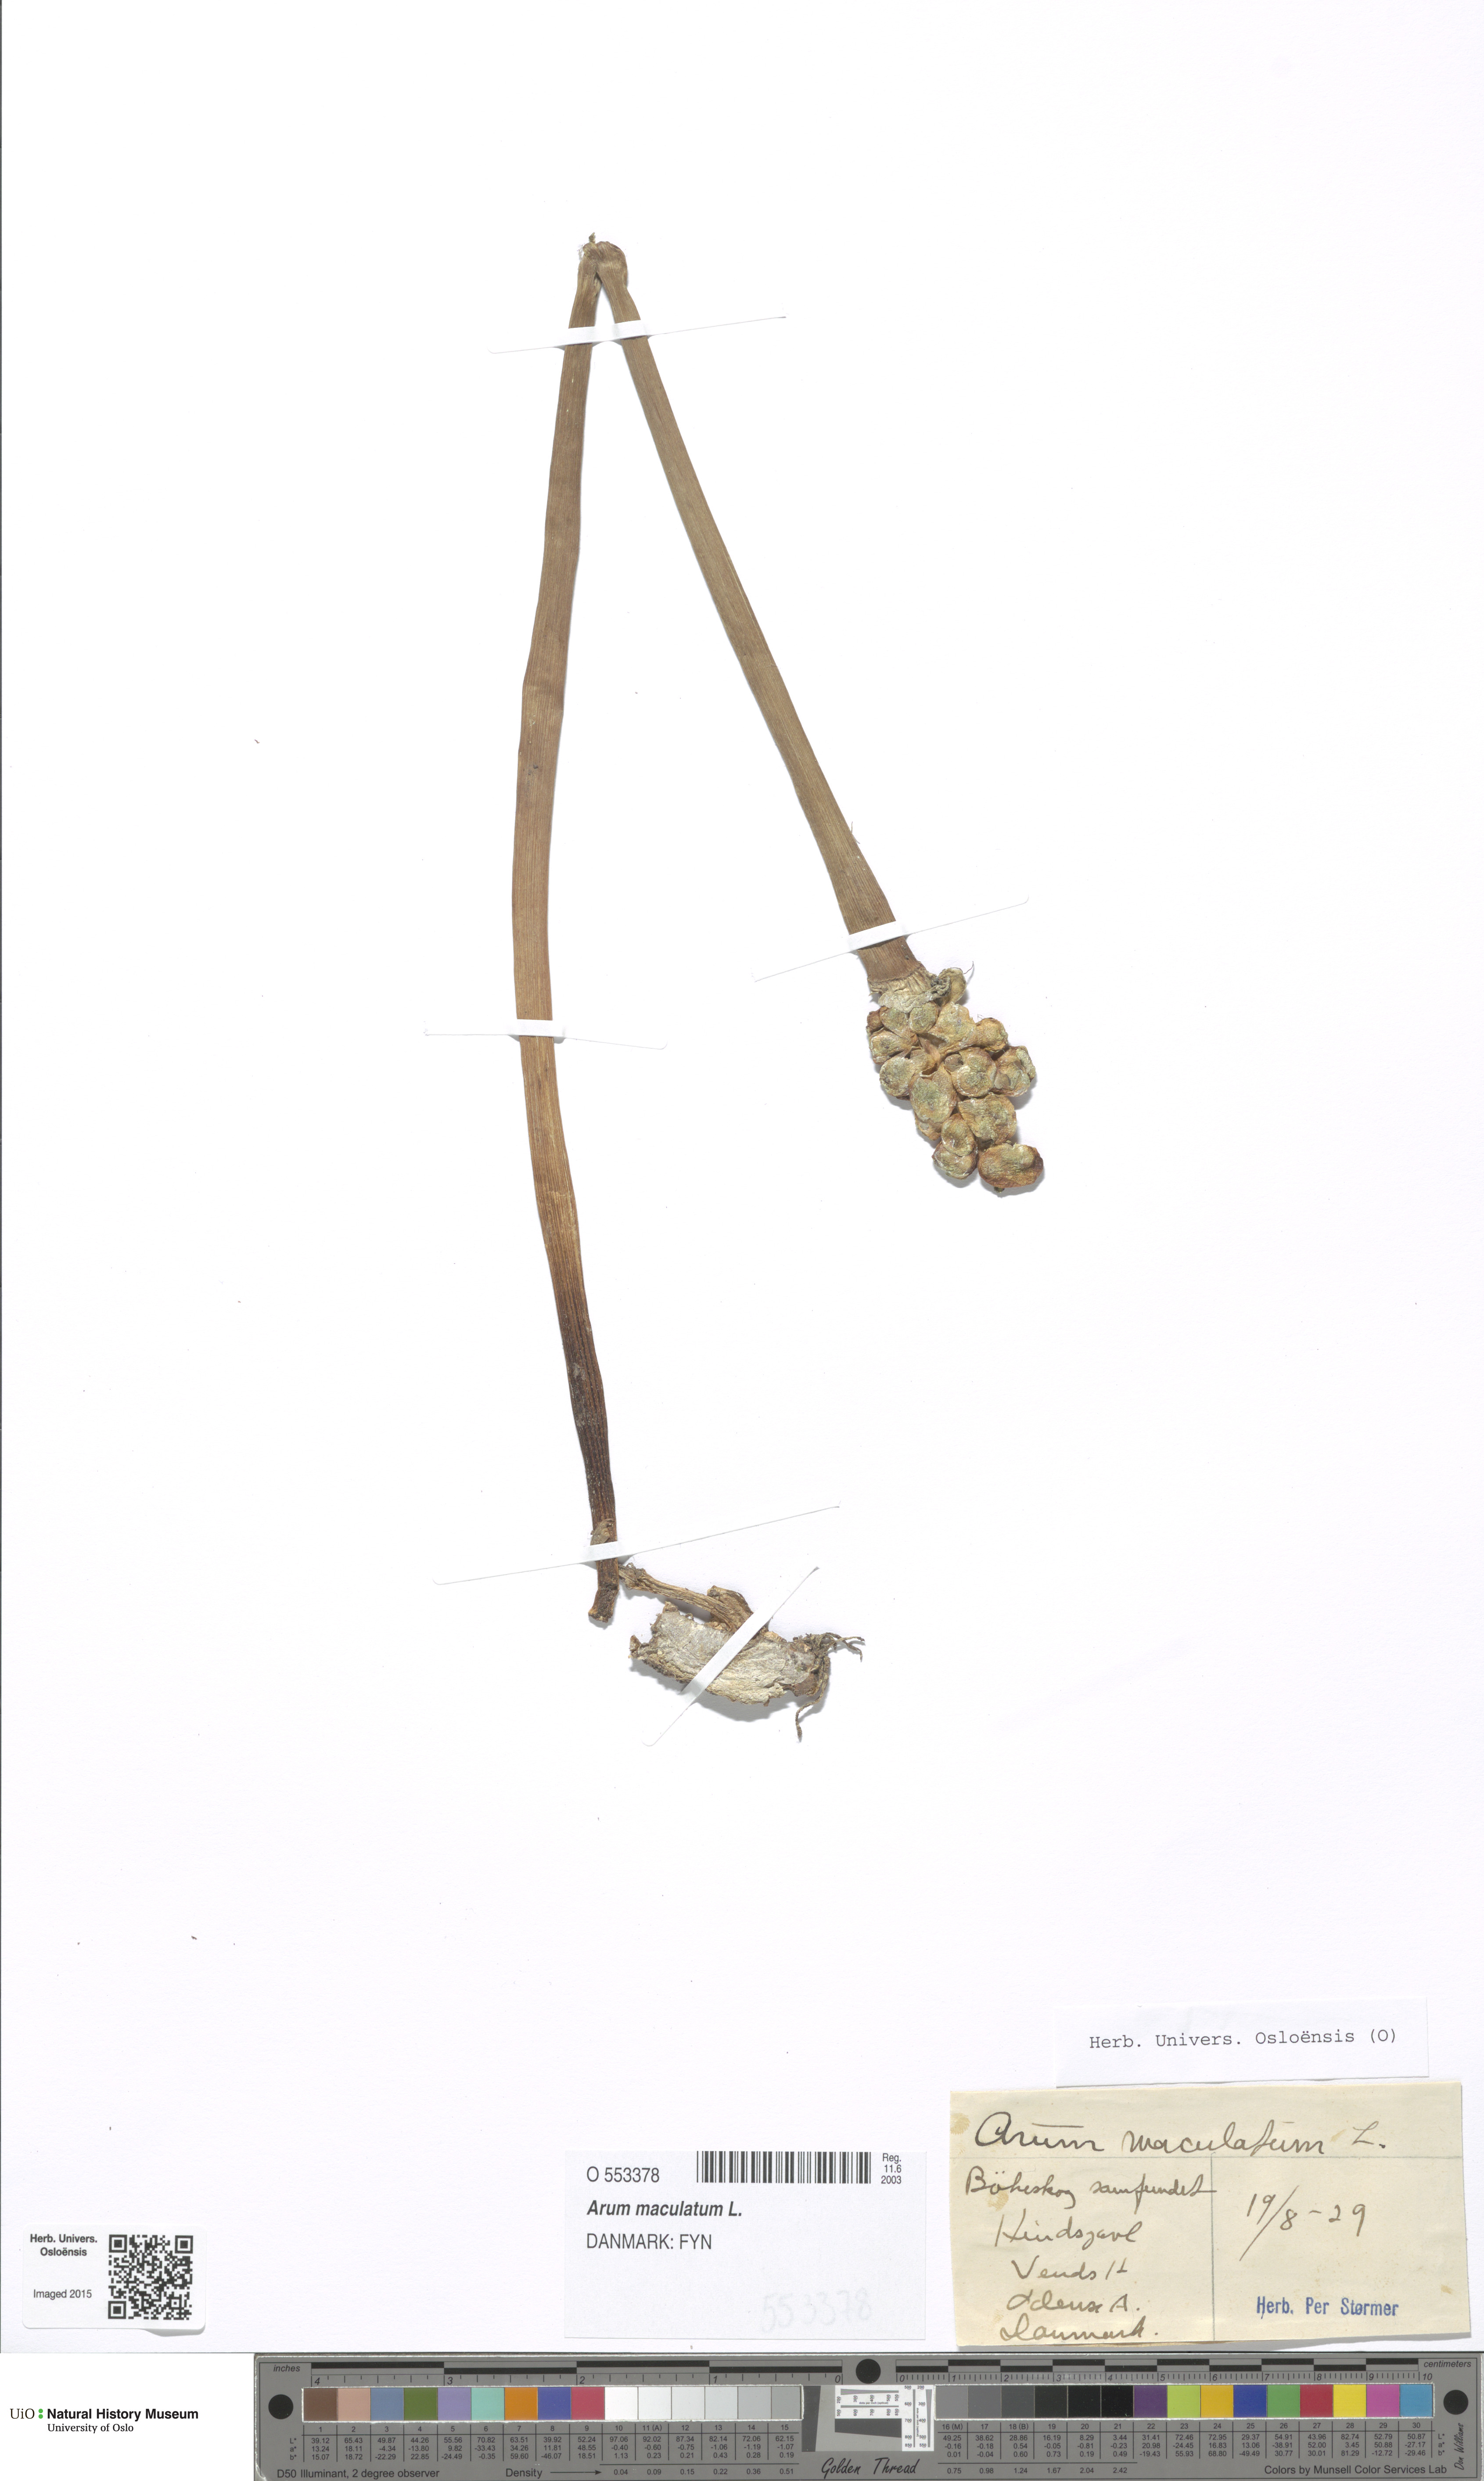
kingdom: Plantae
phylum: Tracheophyta
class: Liliopsida
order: Alismatales
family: Araceae
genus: Arum
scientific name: Arum maculatum
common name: Lords-and-ladies
